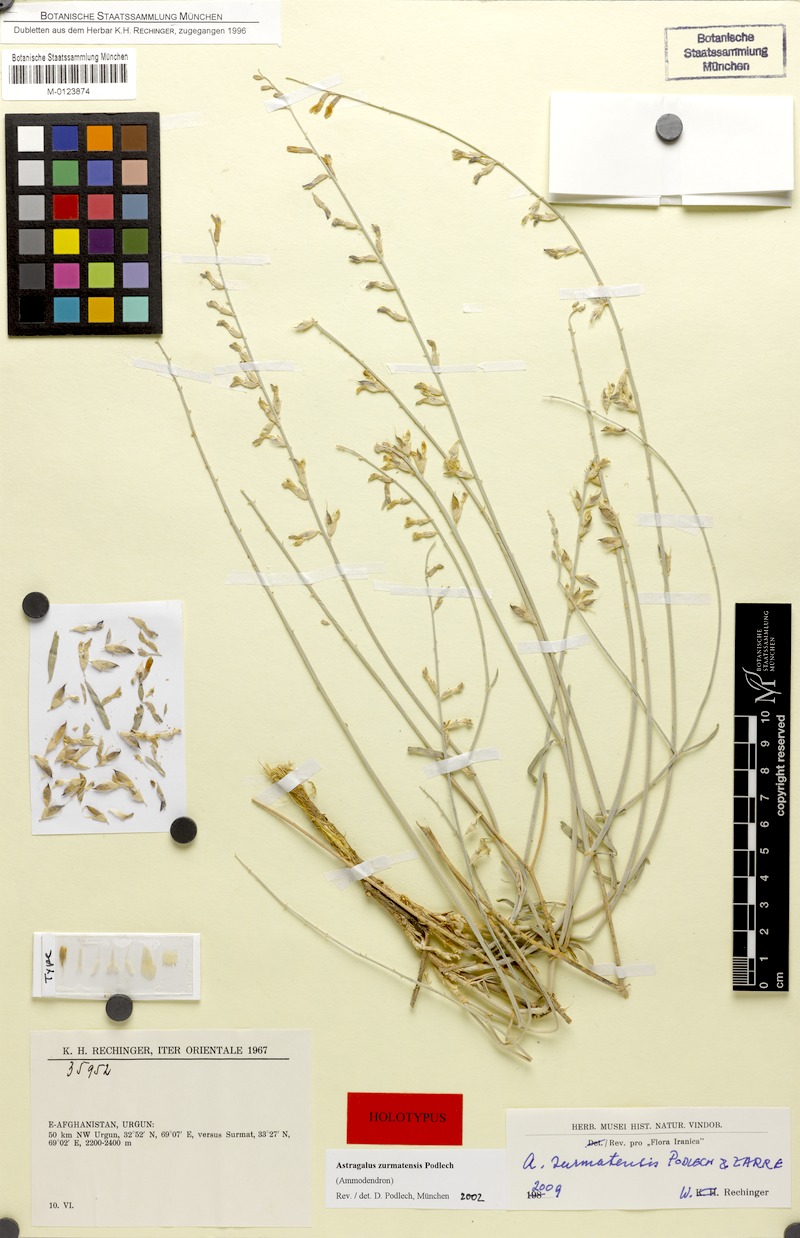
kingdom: Plantae
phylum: Tracheophyta
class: Magnoliopsida
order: Fabales
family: Fabaceae
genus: Astragalus
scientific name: Astragalus zurmatensis
